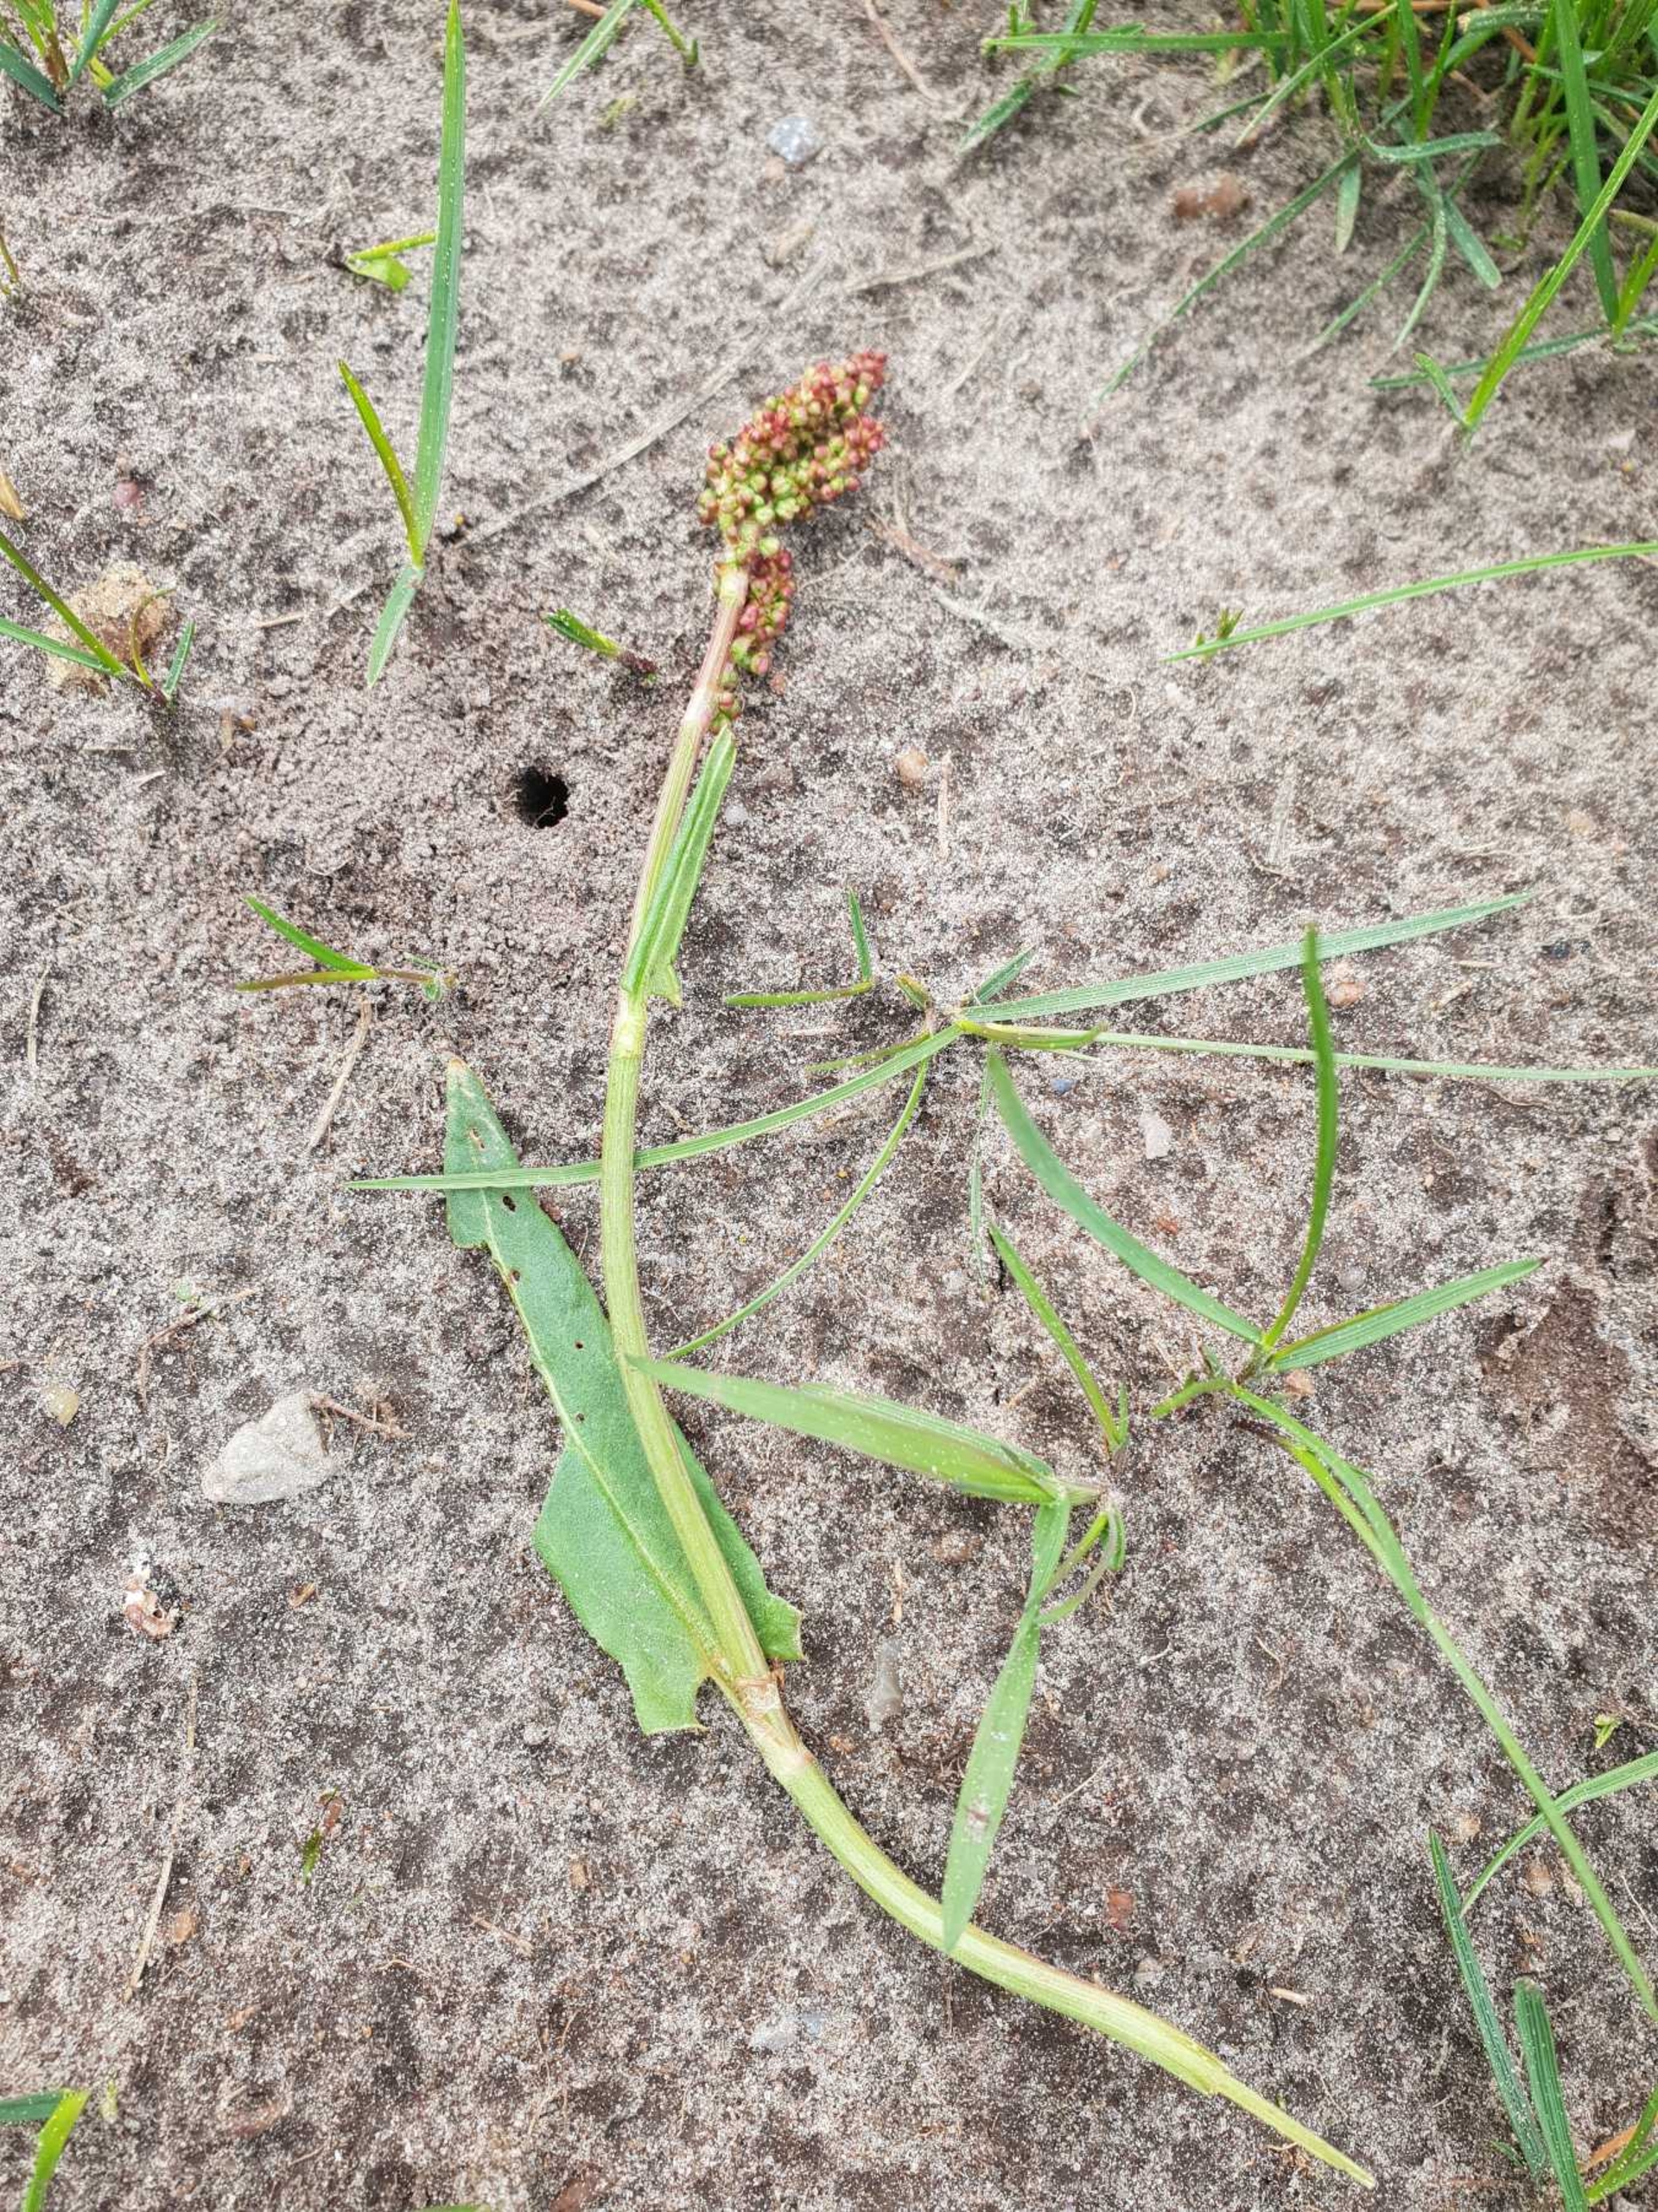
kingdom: Plantae
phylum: Tracheophyta
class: Magnoliopsida
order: Caryophyllales
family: Polygonaceae
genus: Rumex
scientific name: Rumex acetosa
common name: Almindelig syre
